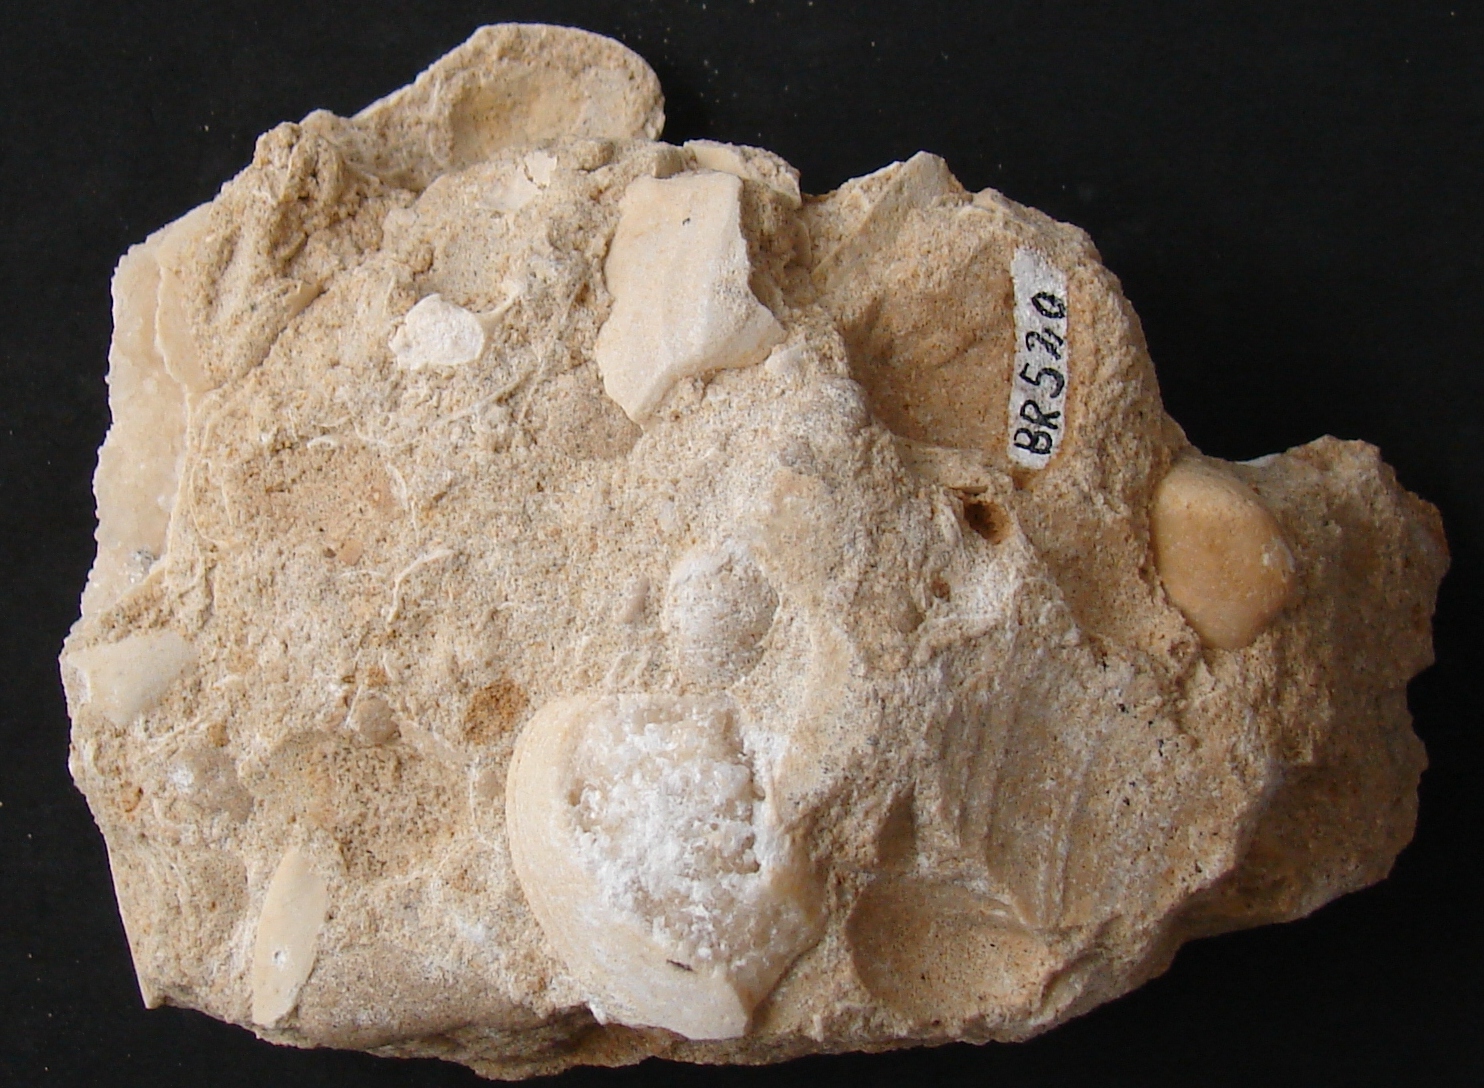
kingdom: Animalia
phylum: Mollusca
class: Bivalvia
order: Mytilida
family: Mytilidae
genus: Modiolus
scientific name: Modiolus
